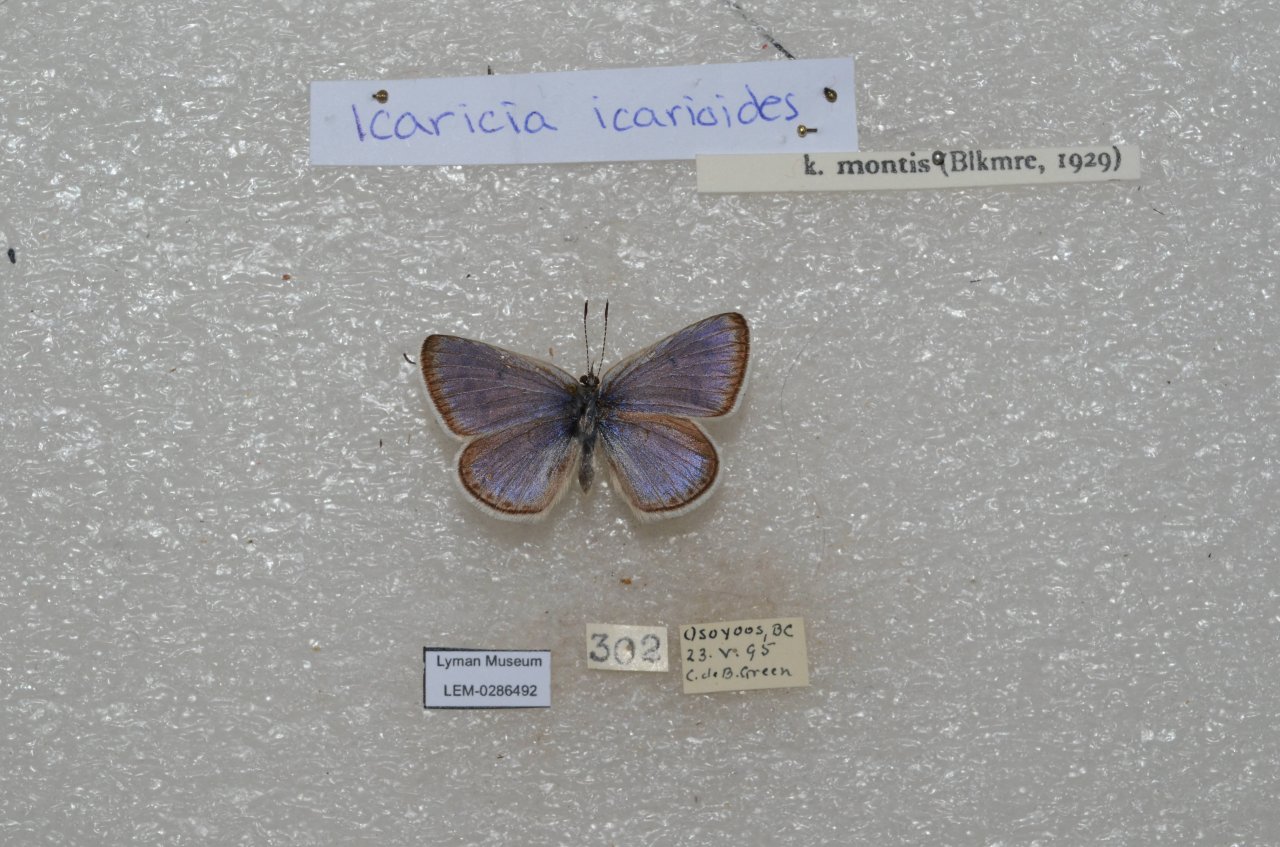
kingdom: Animalia
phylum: Arthropoda
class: Insecta
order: Lepidoptera
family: Lycaenidae
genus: Icaricia
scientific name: Icaricia icarioides
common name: Boisduval's Blue
